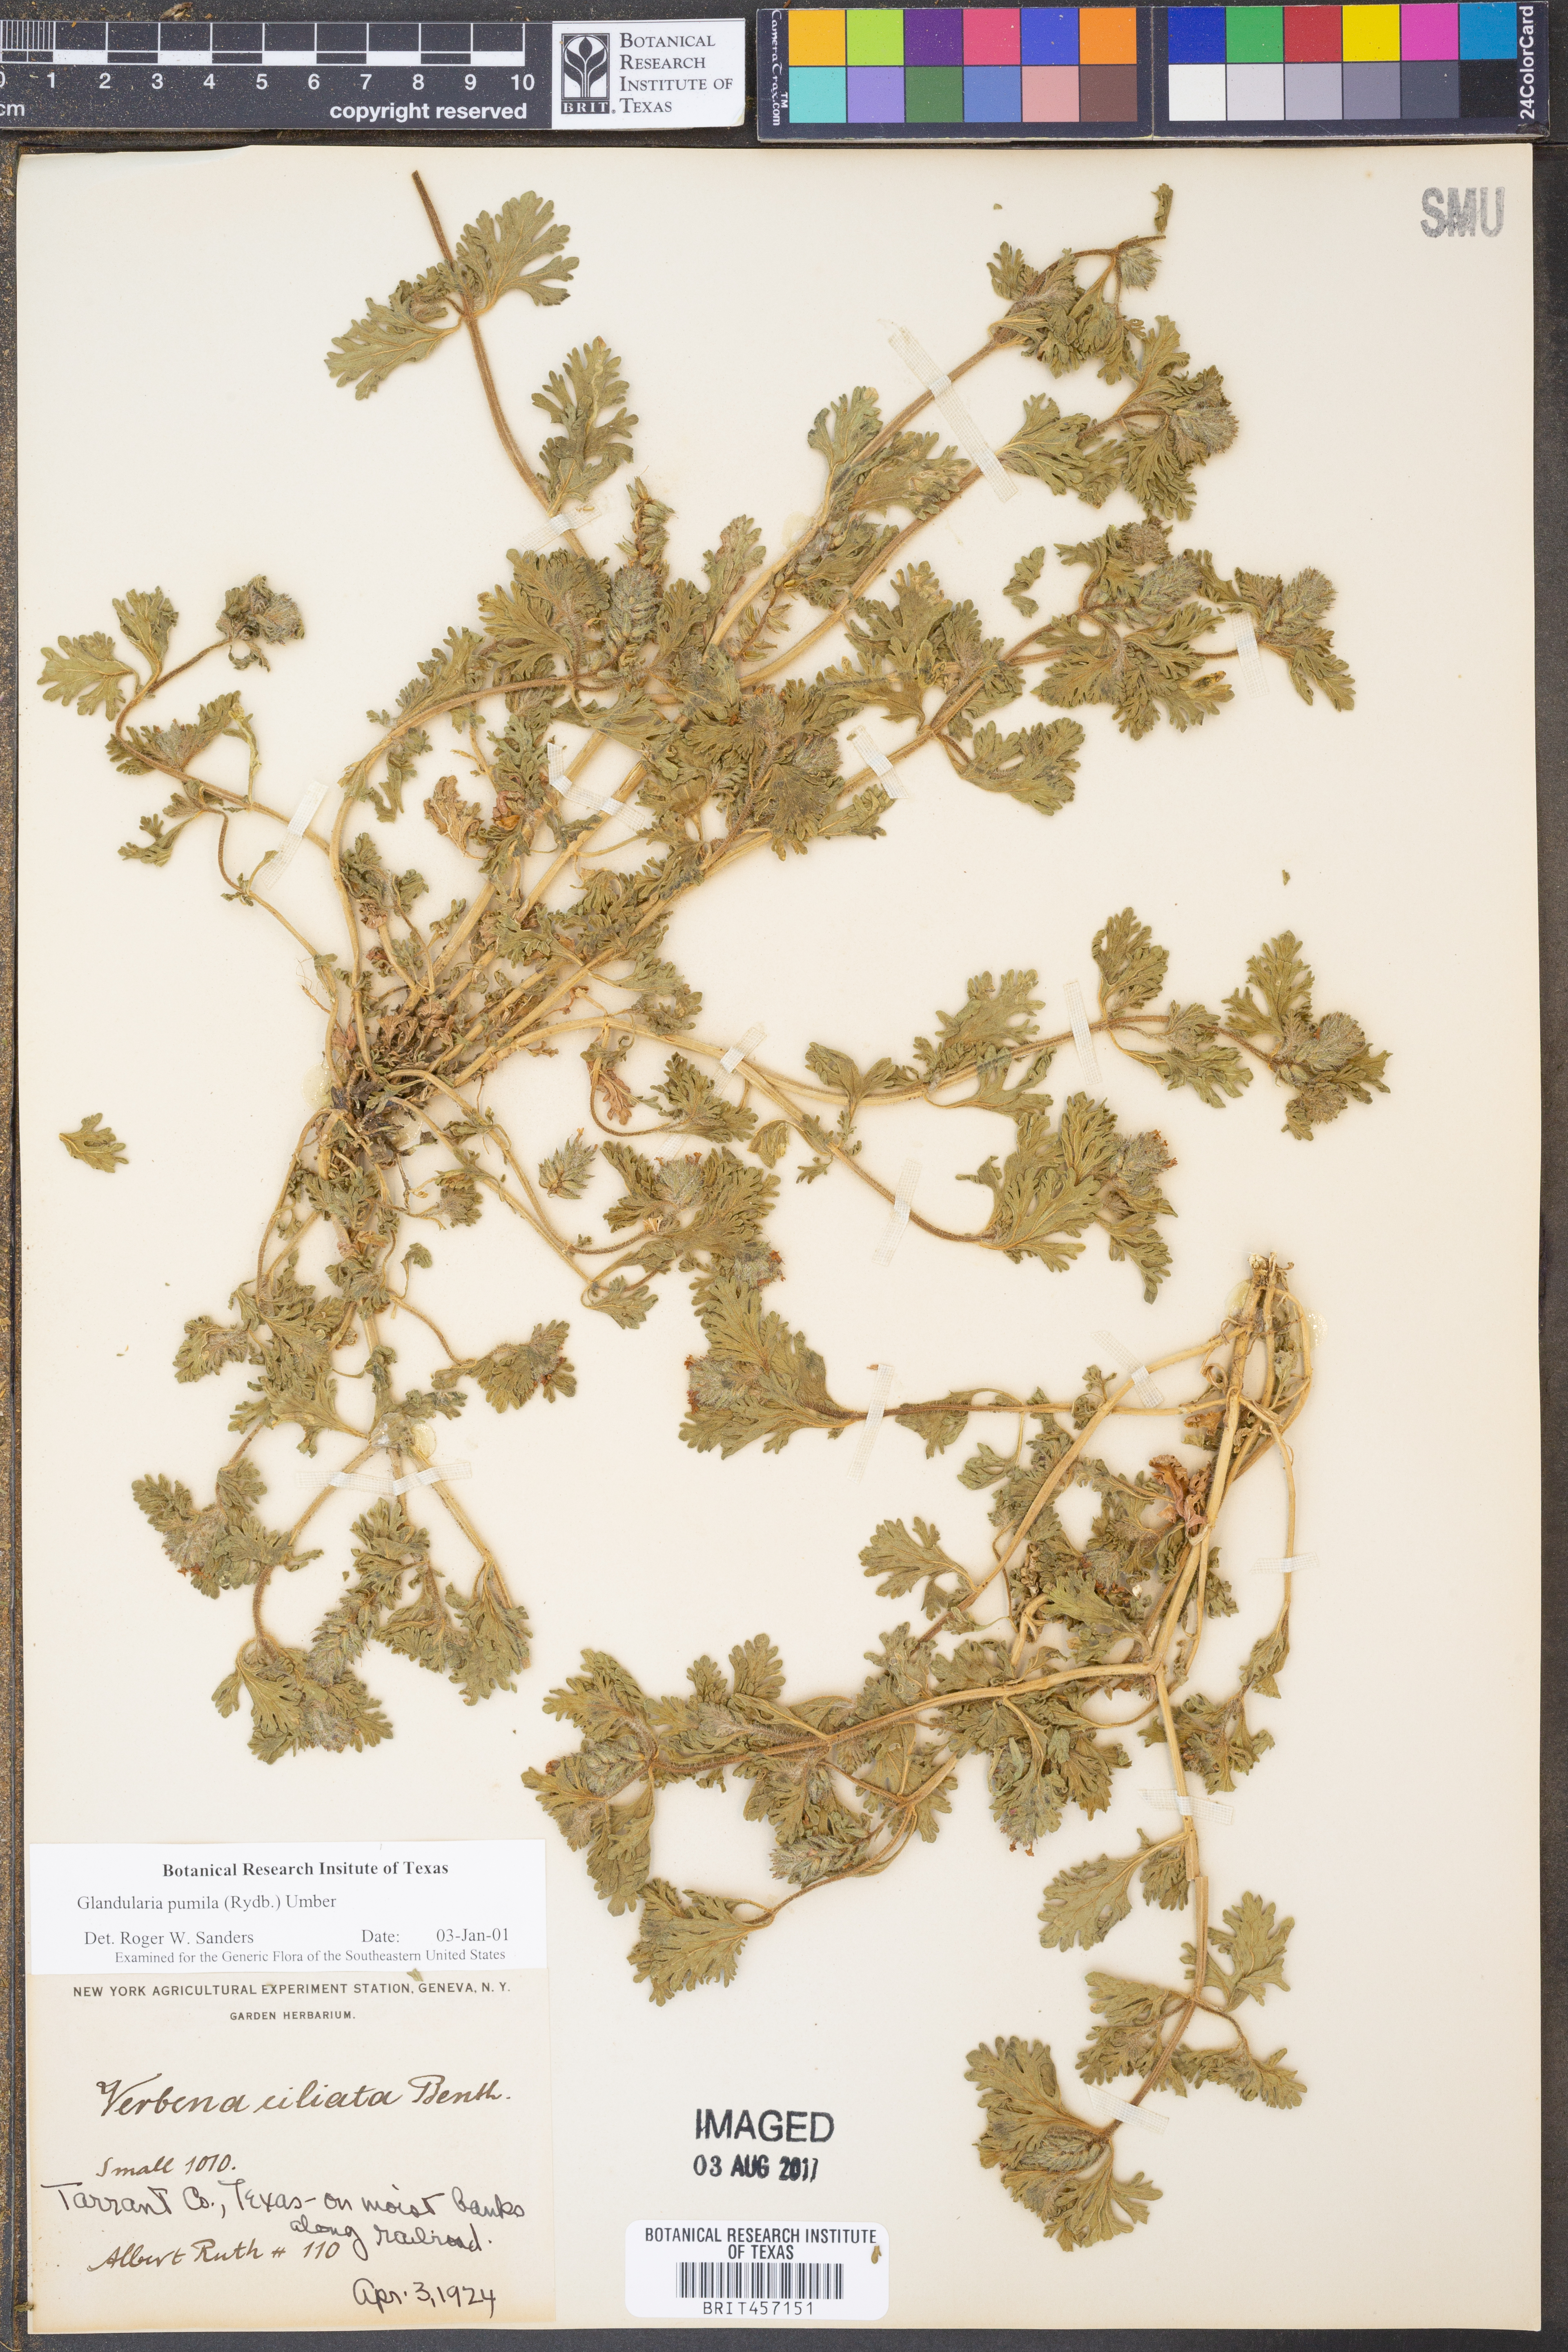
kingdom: Plantae
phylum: Tracheophyta
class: Magnoliopsida
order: Lamiales
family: Verbenaceae
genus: Verbena
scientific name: Verbena pumila
